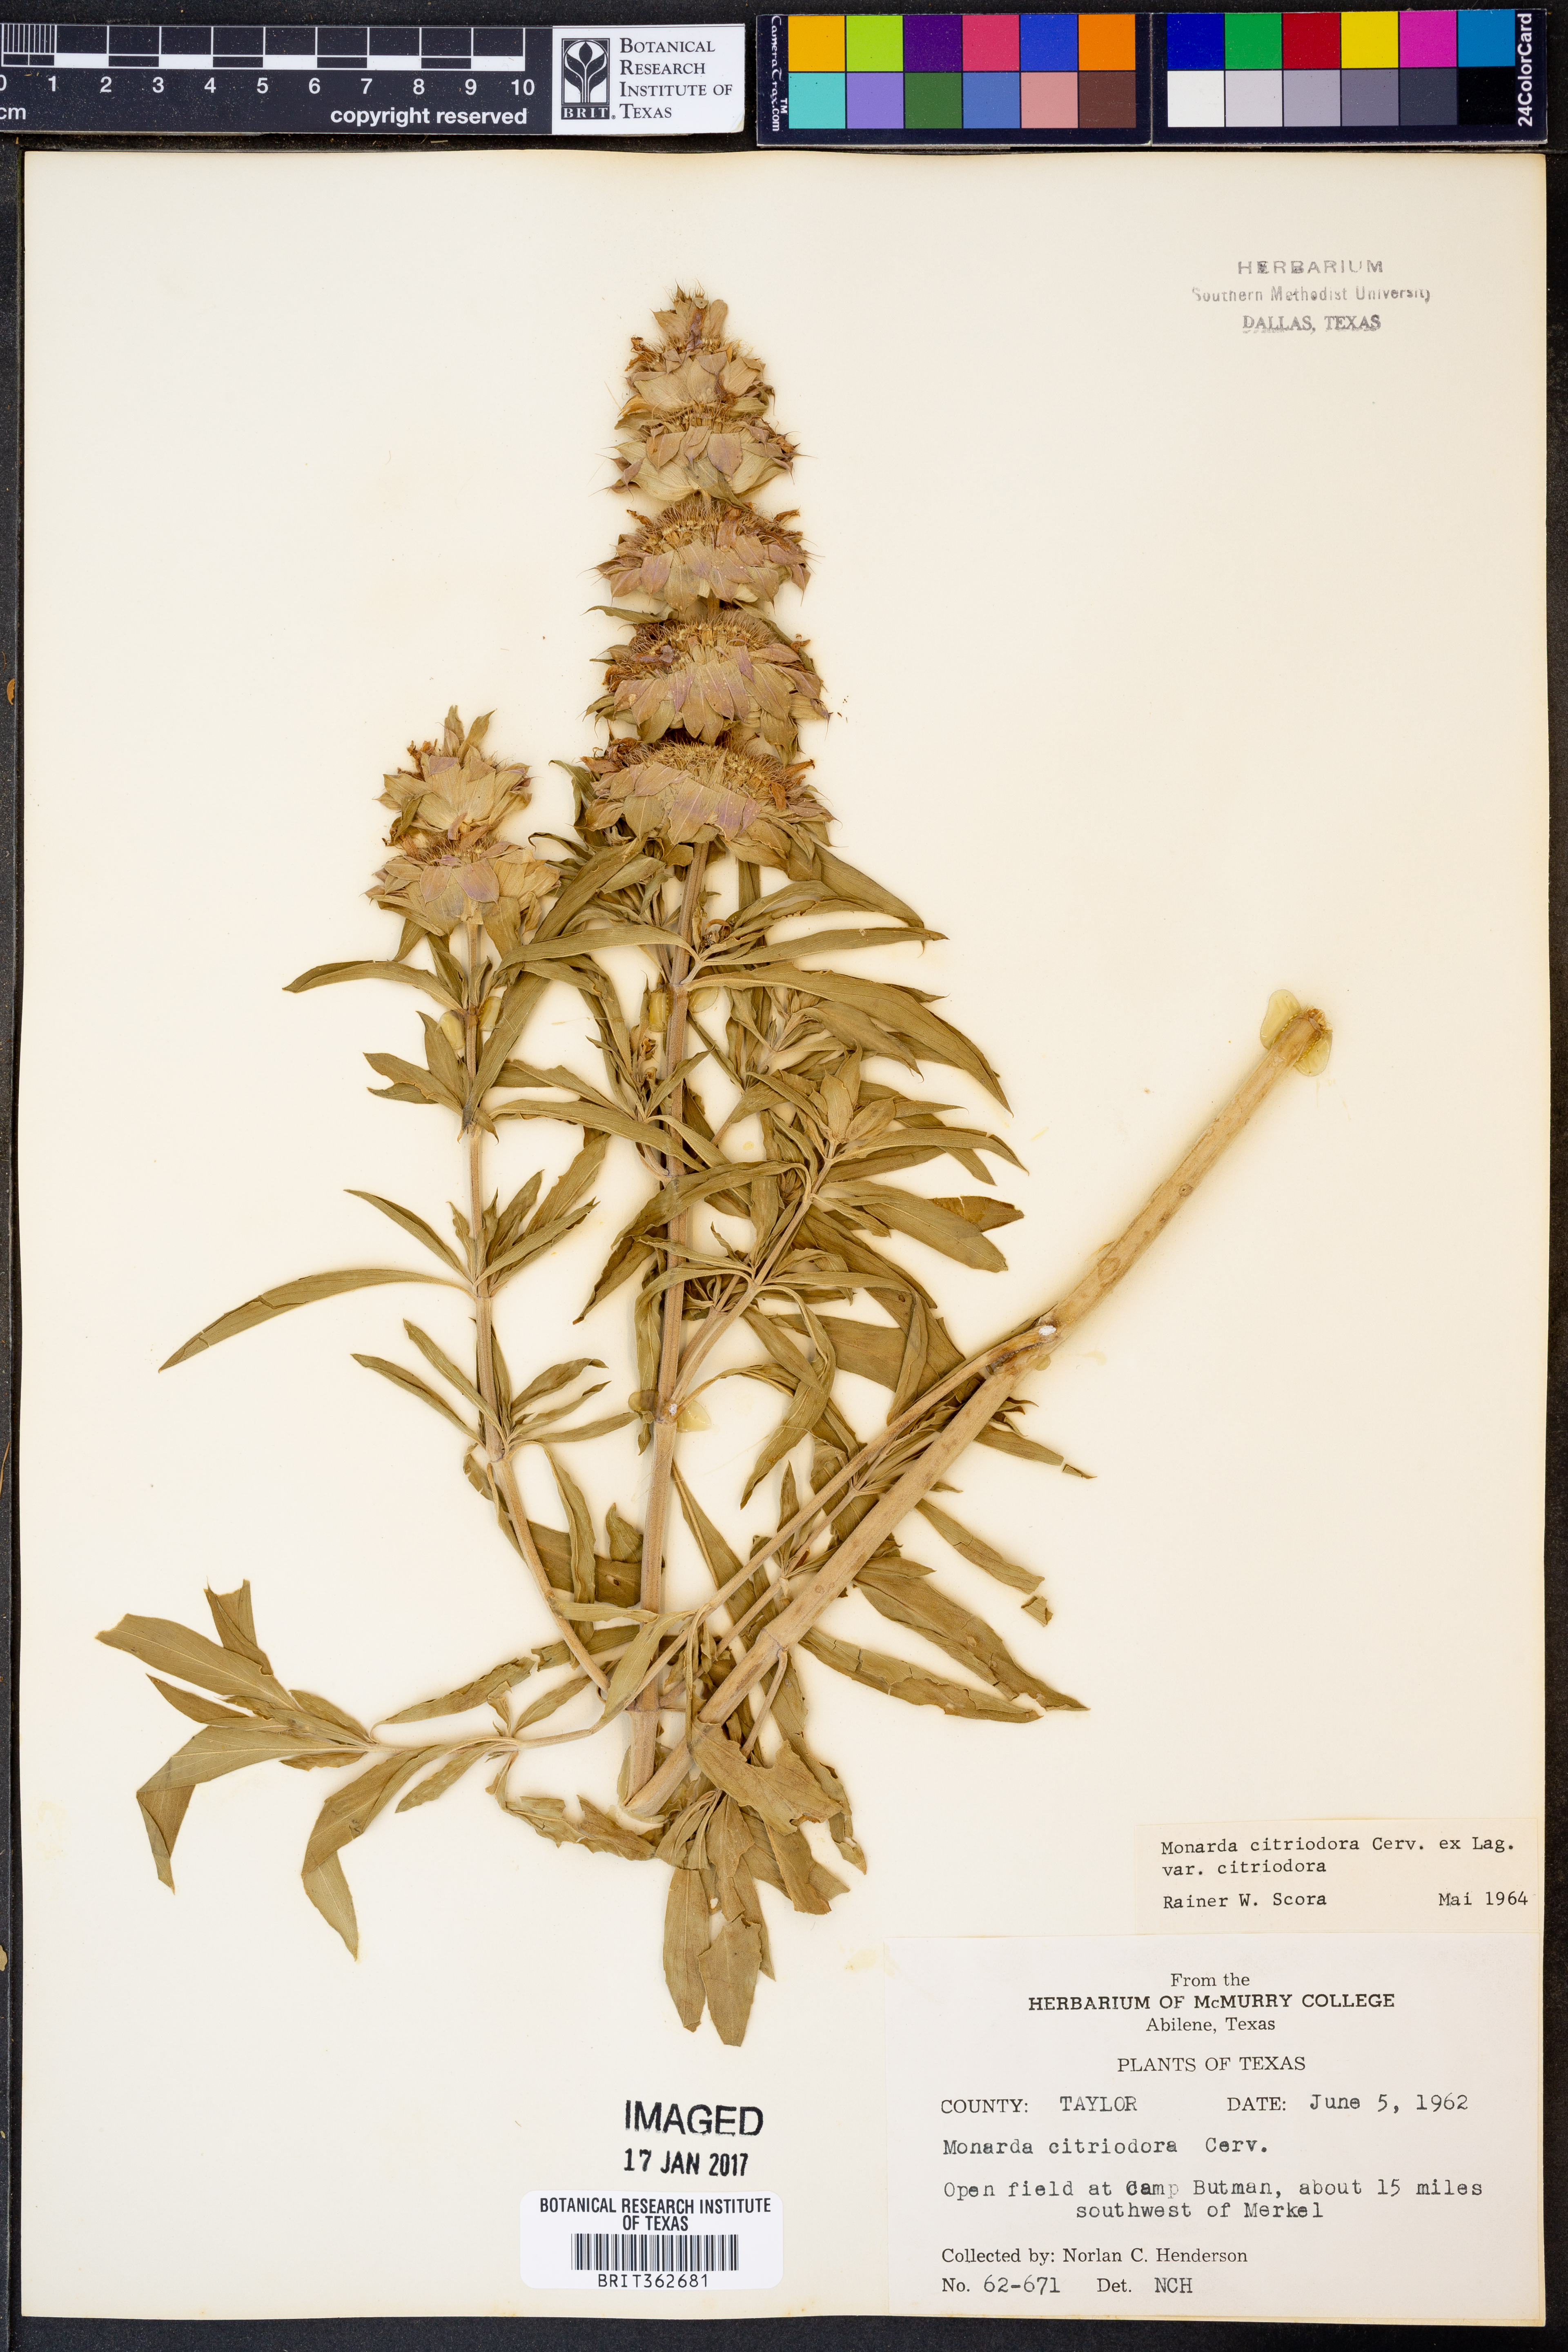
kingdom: Plantae
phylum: Tracheophyta
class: Magnoliopsida
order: Lamiales
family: Lamiaceae
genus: Monarda
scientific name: Monarda citriodora
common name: Lemon beebalm
